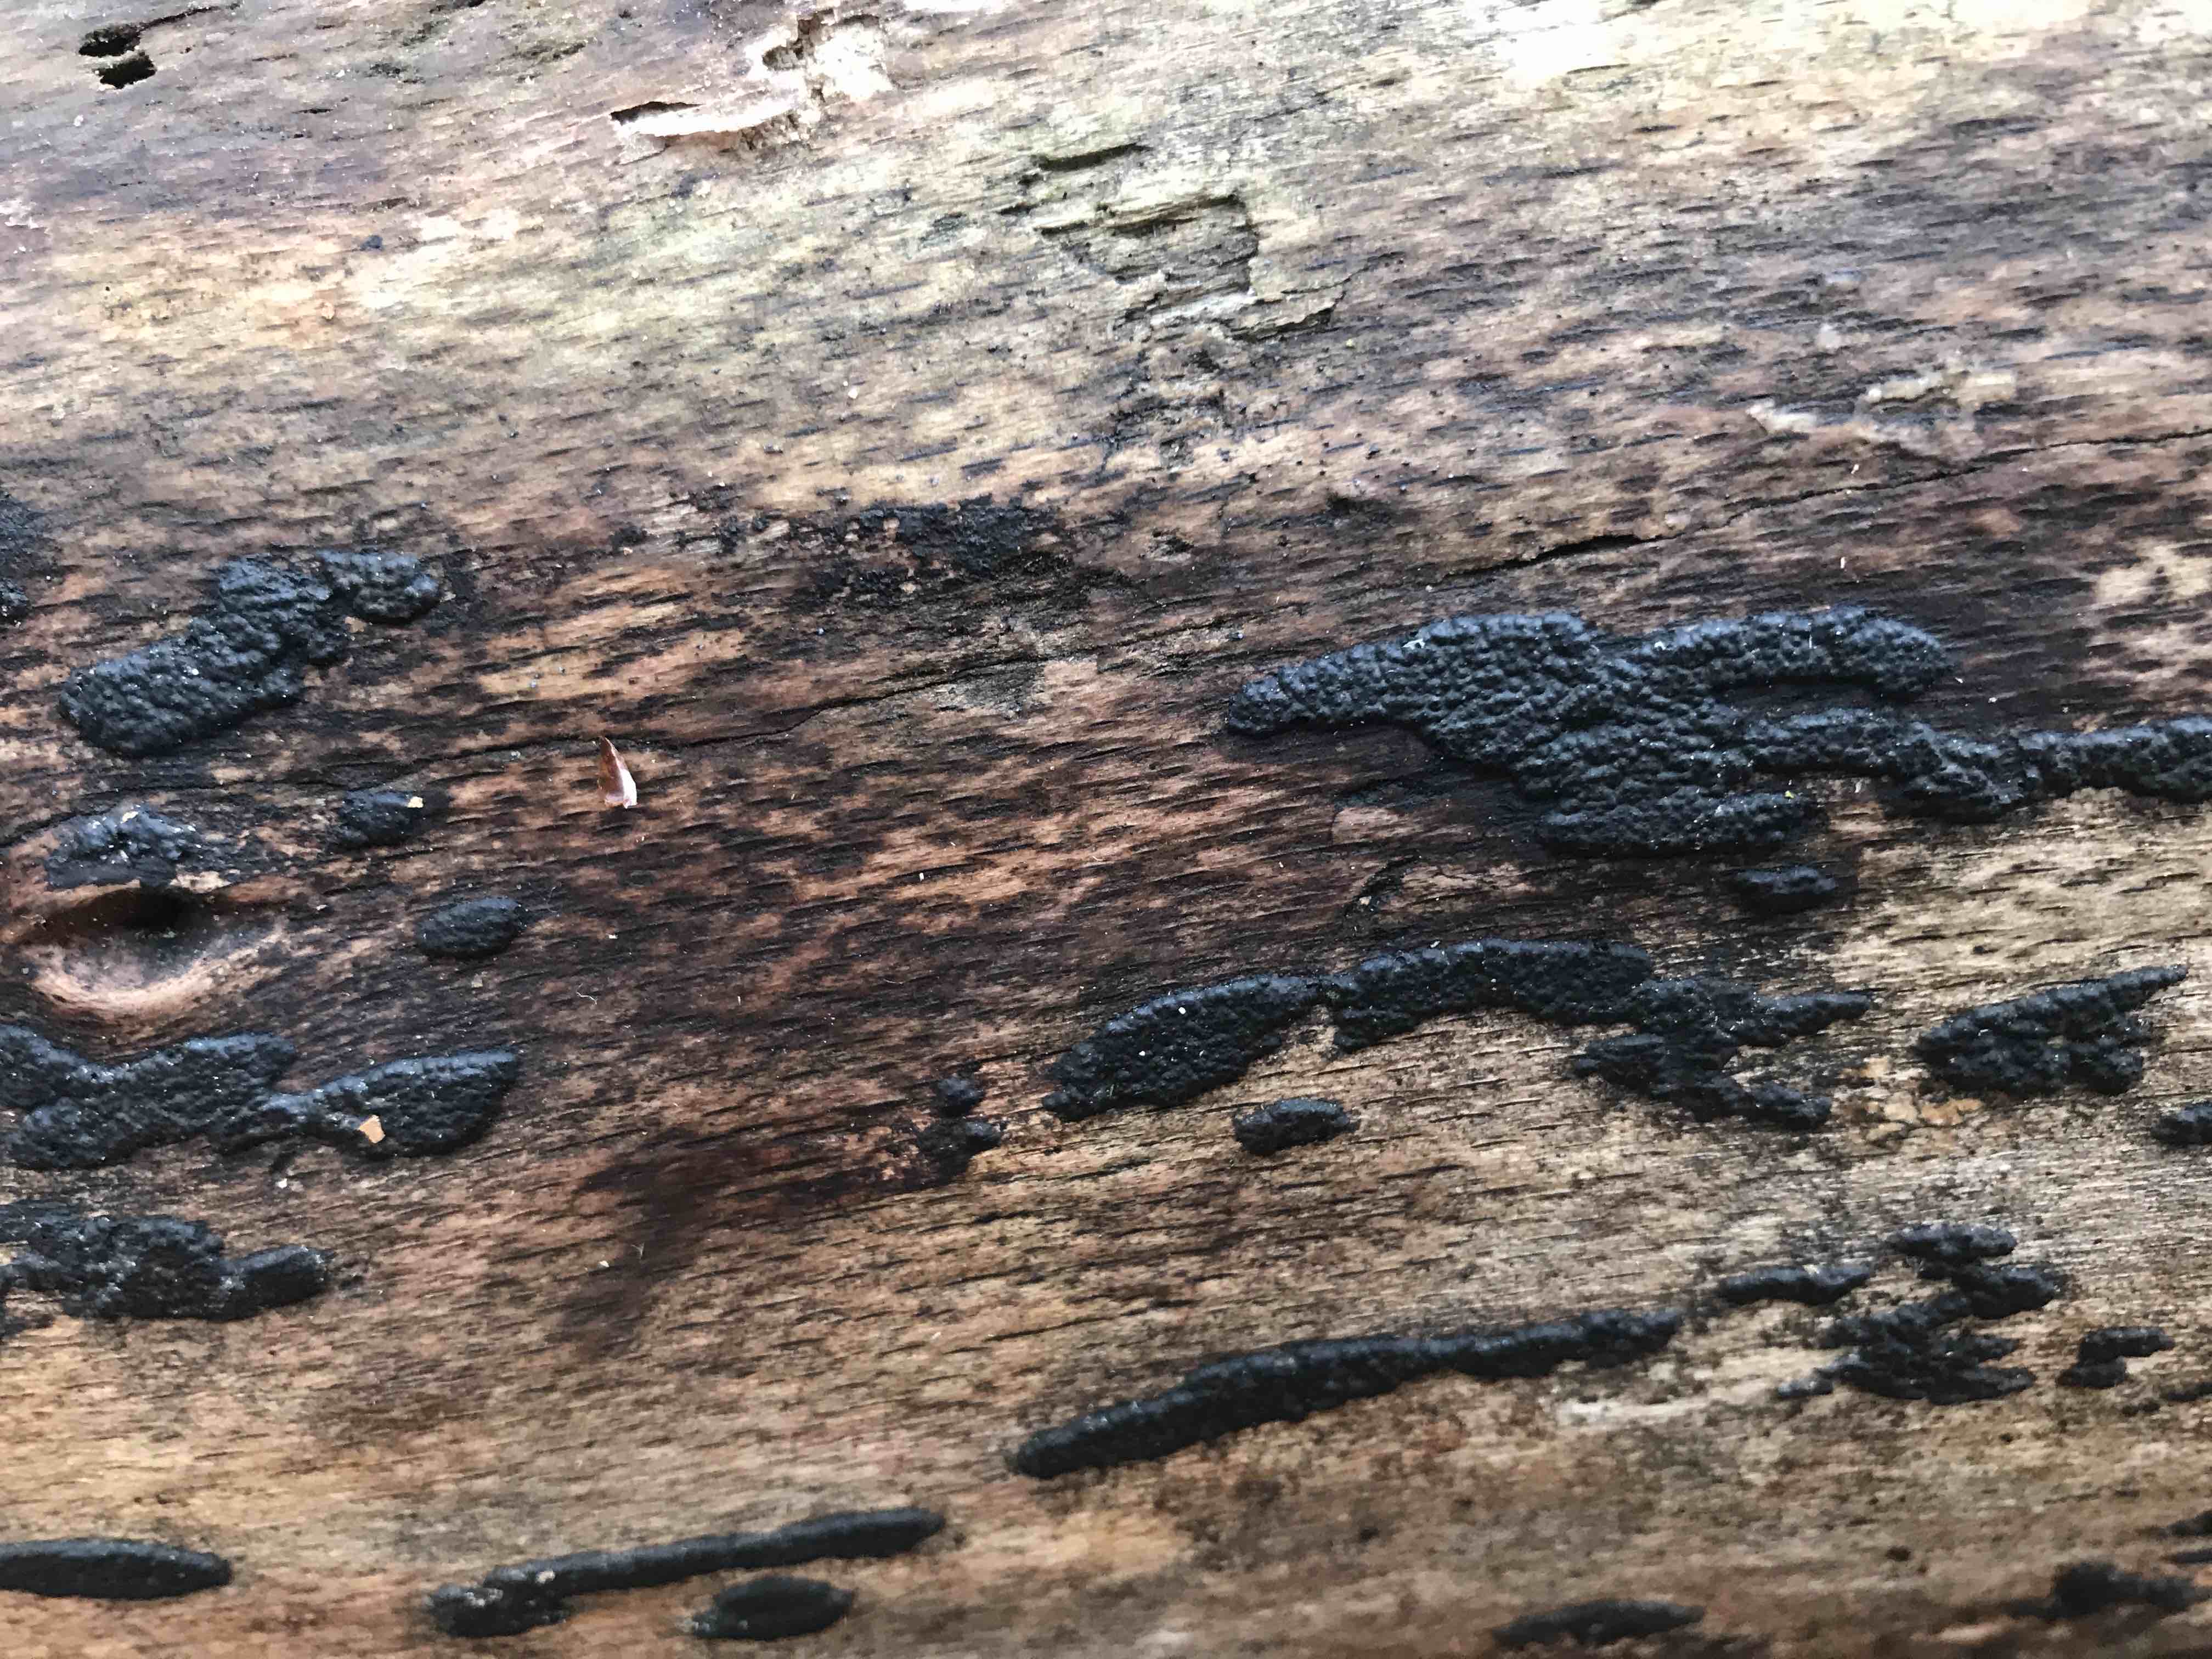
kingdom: Fungi
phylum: Ascomycota
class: Sordariomycetes
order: Xylariales
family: Xylariaceae
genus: Nemania
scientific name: Nemania
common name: kuldyne
